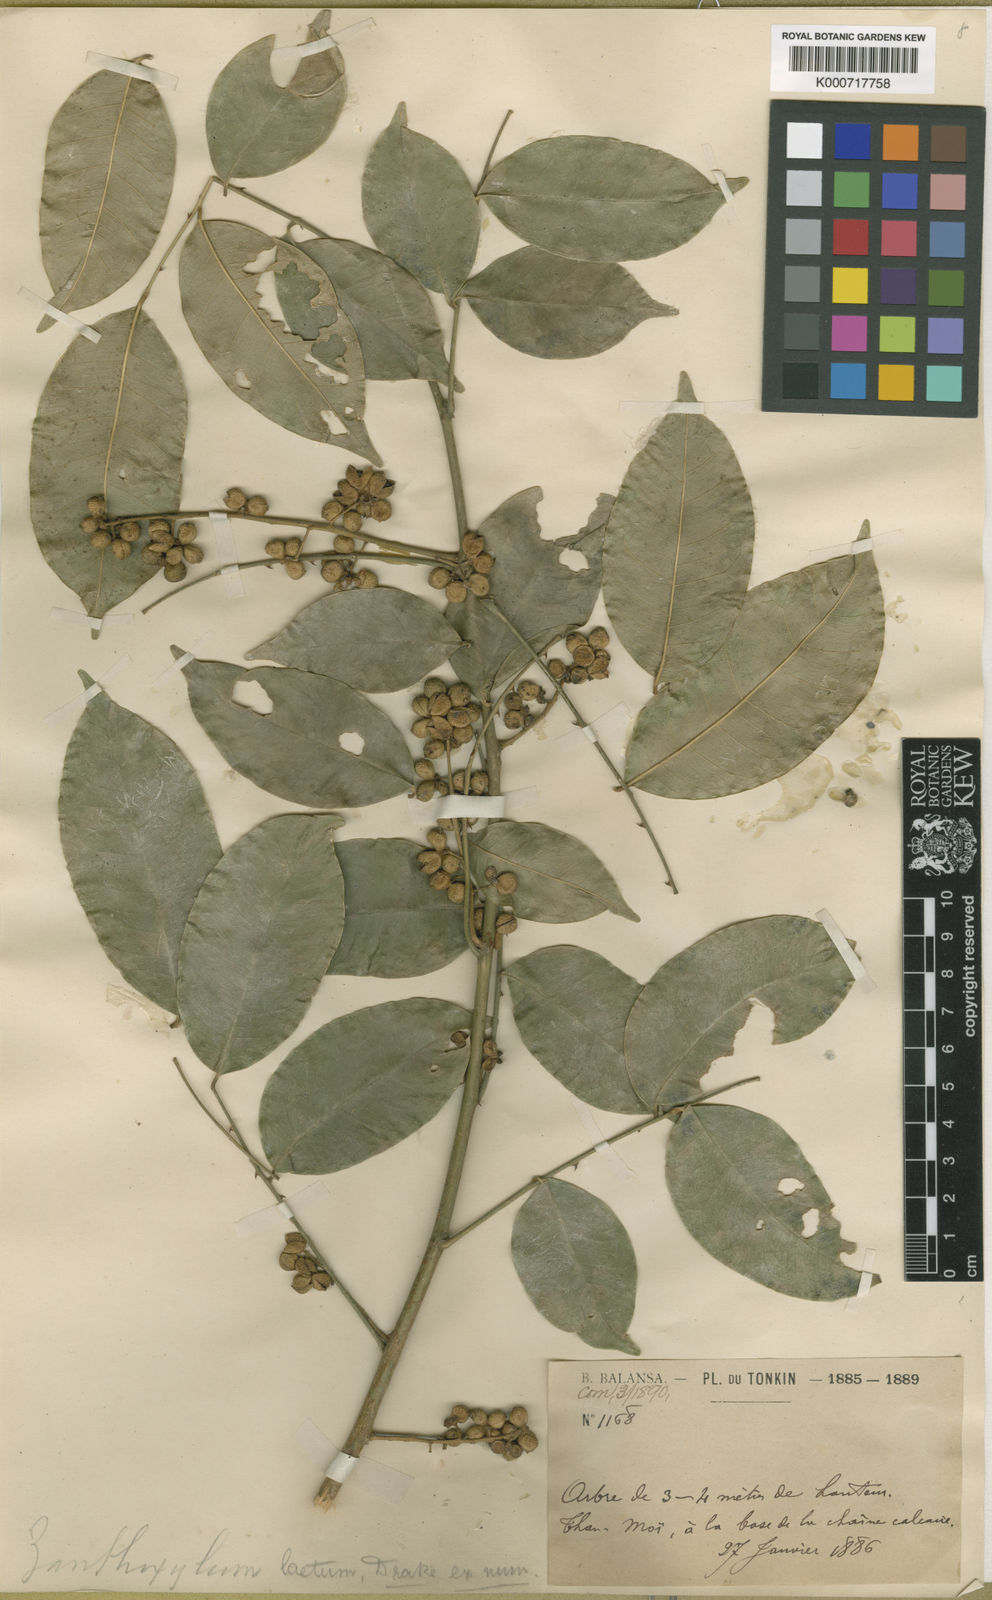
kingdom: Plantae
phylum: Tracheophyta
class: Magnoliopsida
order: Sapindales
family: Rutaceae
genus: Zanthoxylum
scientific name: Zanthoxylum laetum
